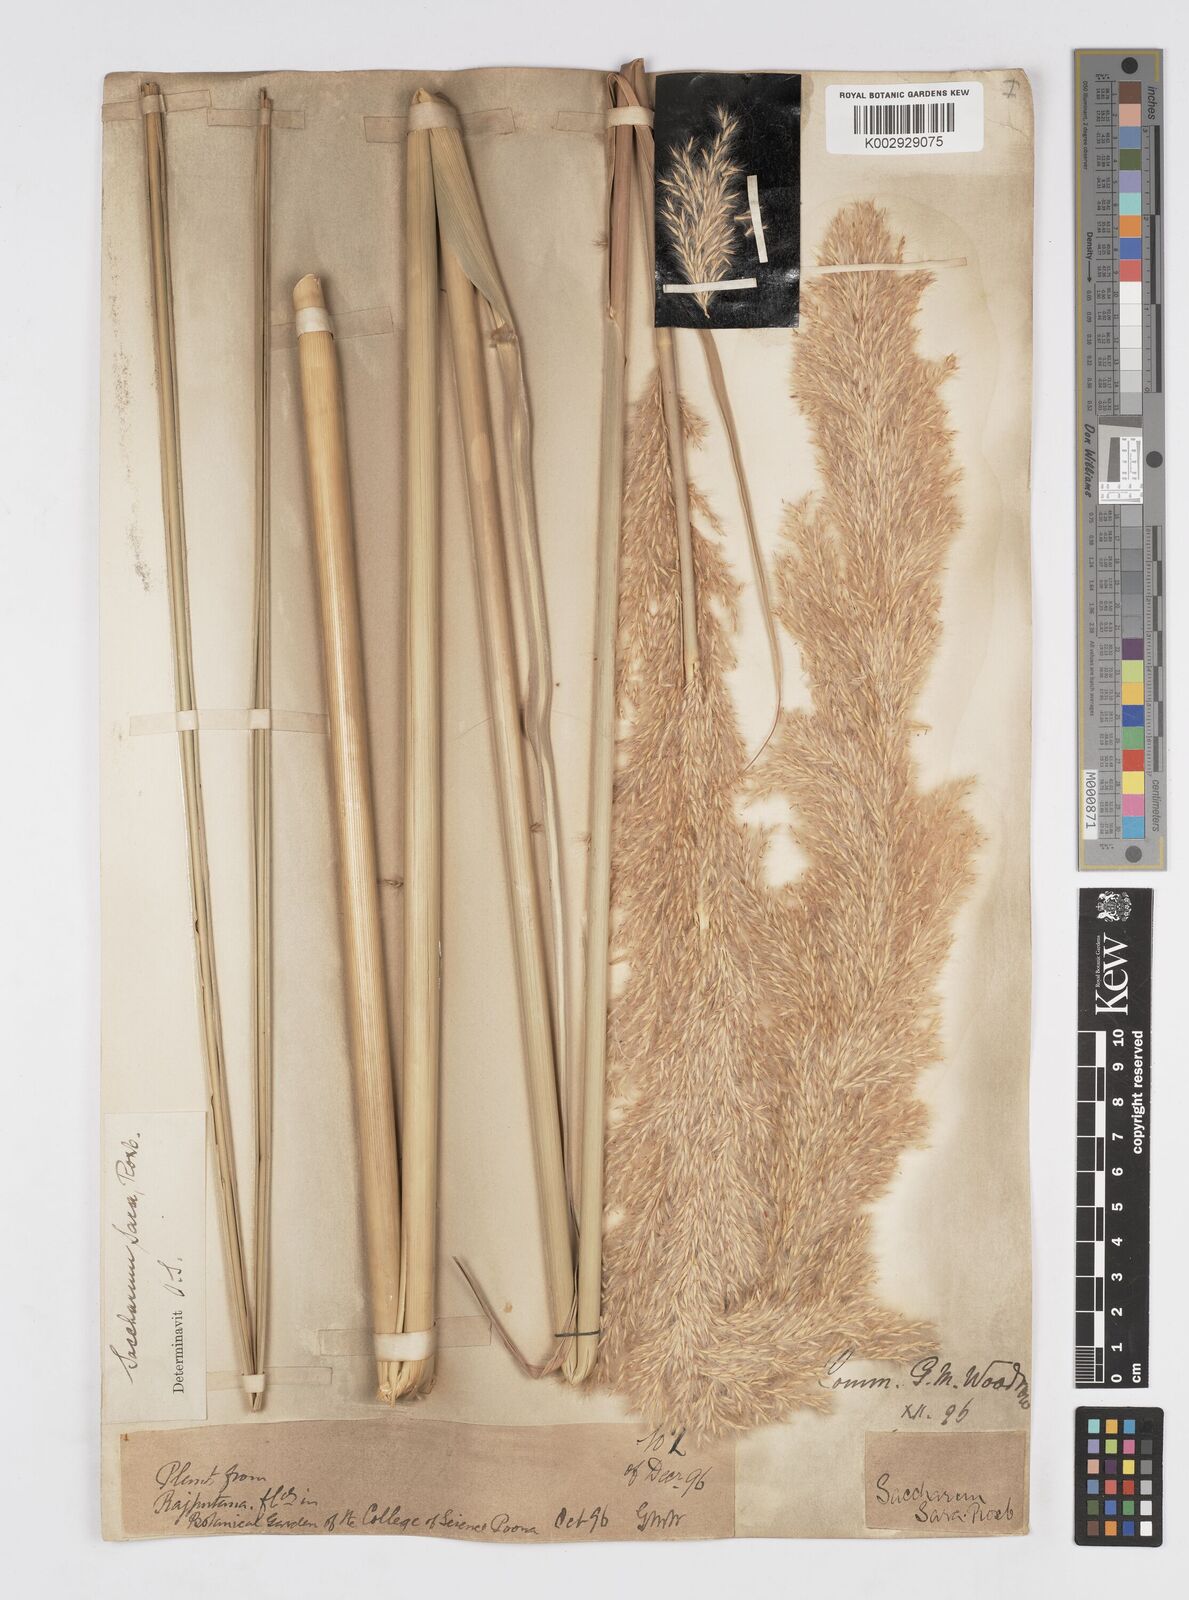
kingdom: Plantae
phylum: Tracheophyta
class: Liliopsida
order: Poales
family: Poaceae
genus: Tripidium
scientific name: Tripidium bengalense
